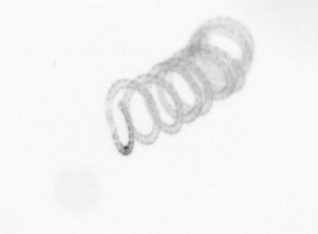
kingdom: Chromista
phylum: Ochrophyta
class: Bacillariophyceae
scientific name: Bacillariophyceae
